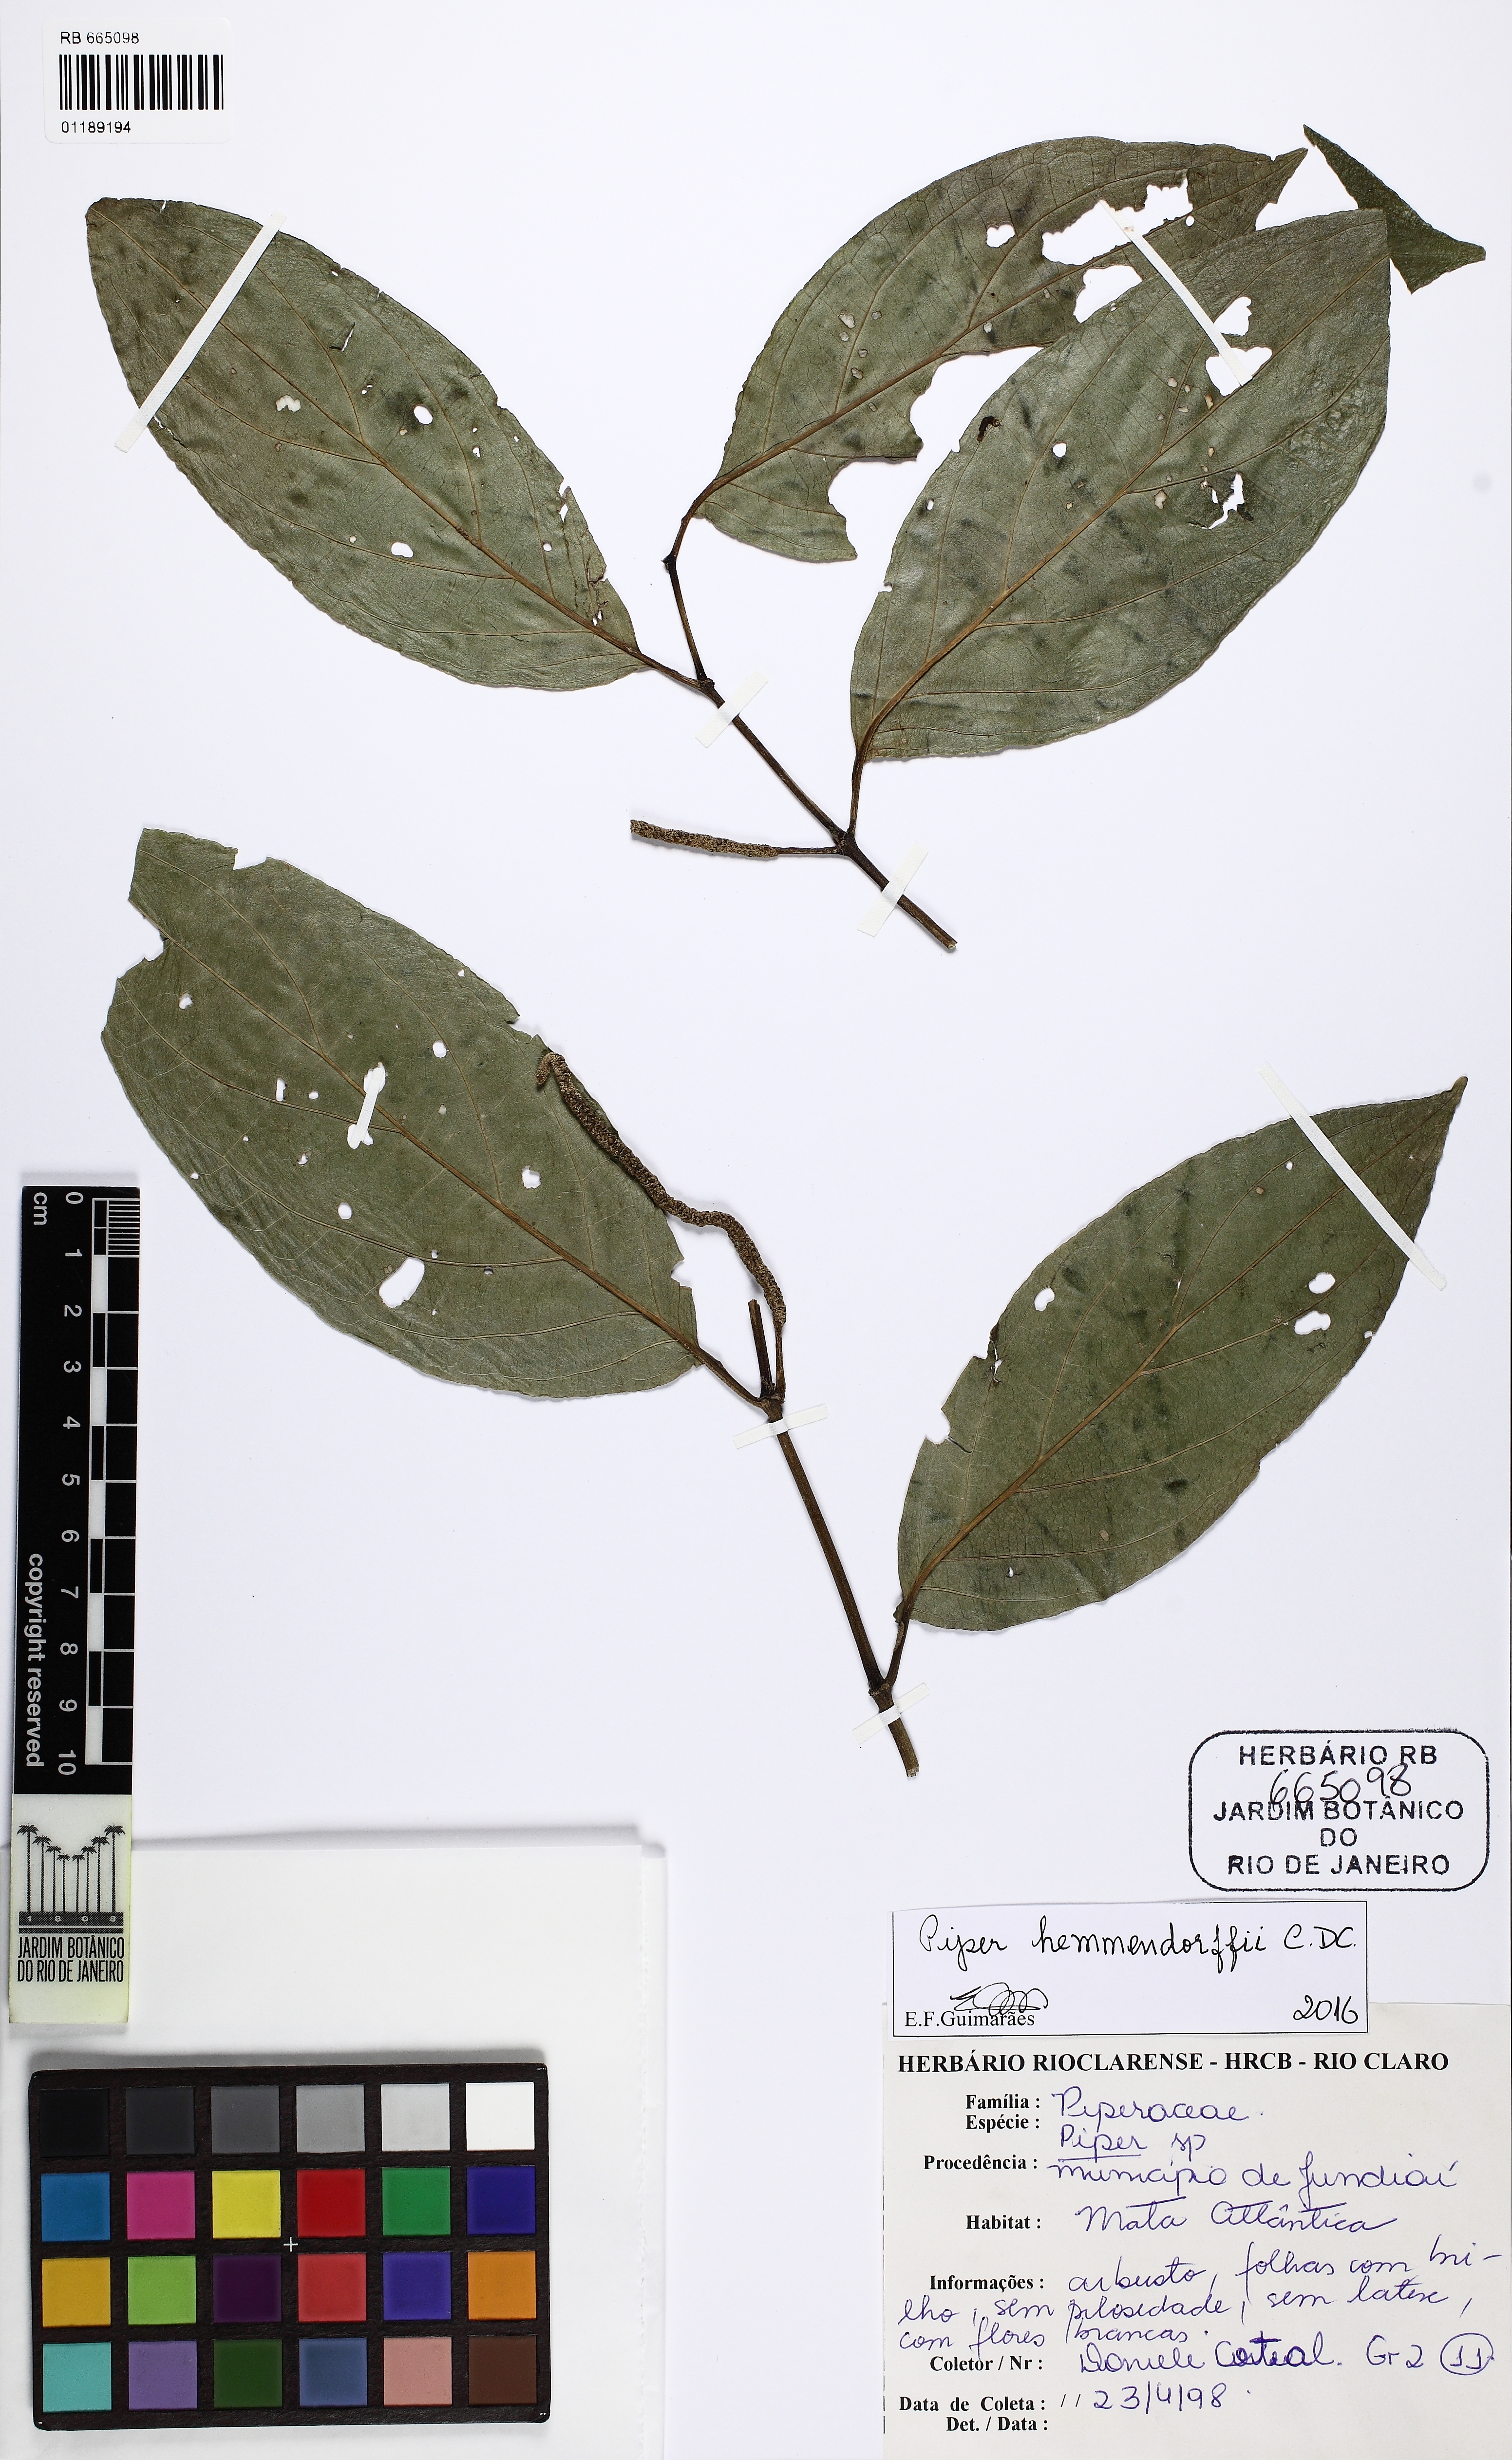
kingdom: Plantae
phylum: Tracheophyta
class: Magnoliopsida
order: Piperales
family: Piperaceae
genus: Piper
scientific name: Piper hemmendorffii
